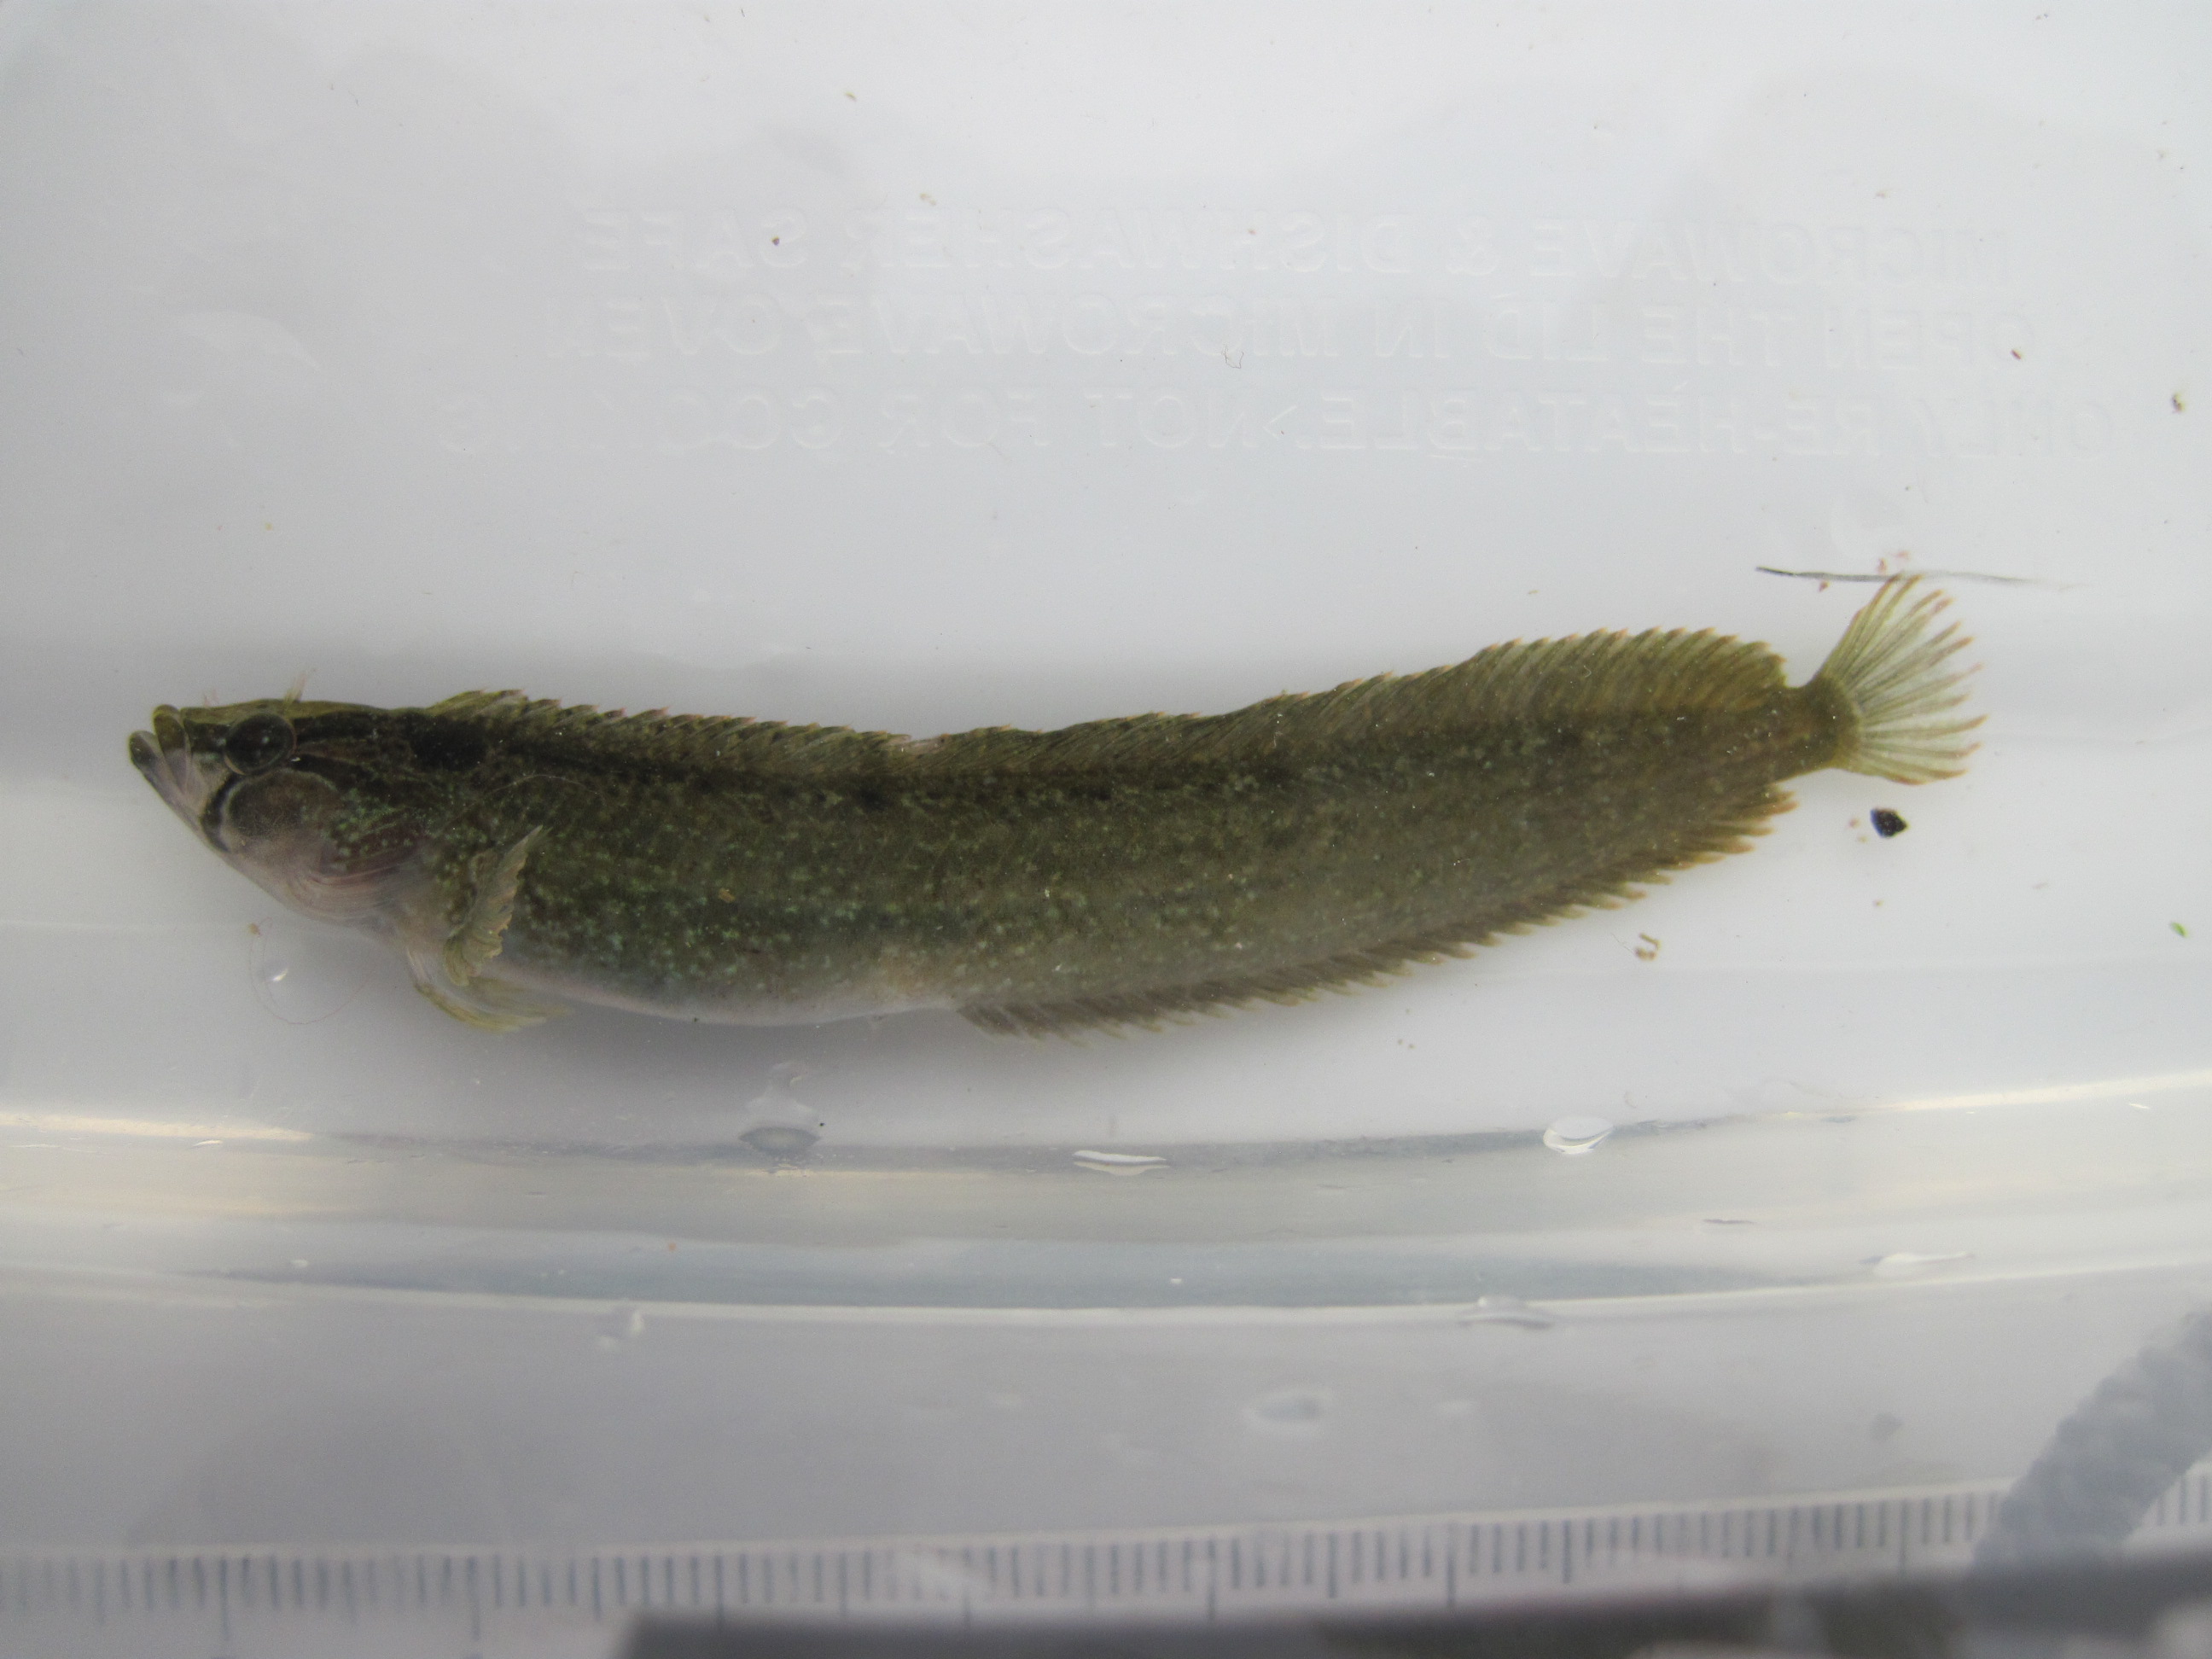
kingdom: Animalia
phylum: Chordata
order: Perciformes
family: Clinidae
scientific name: Clinidae
